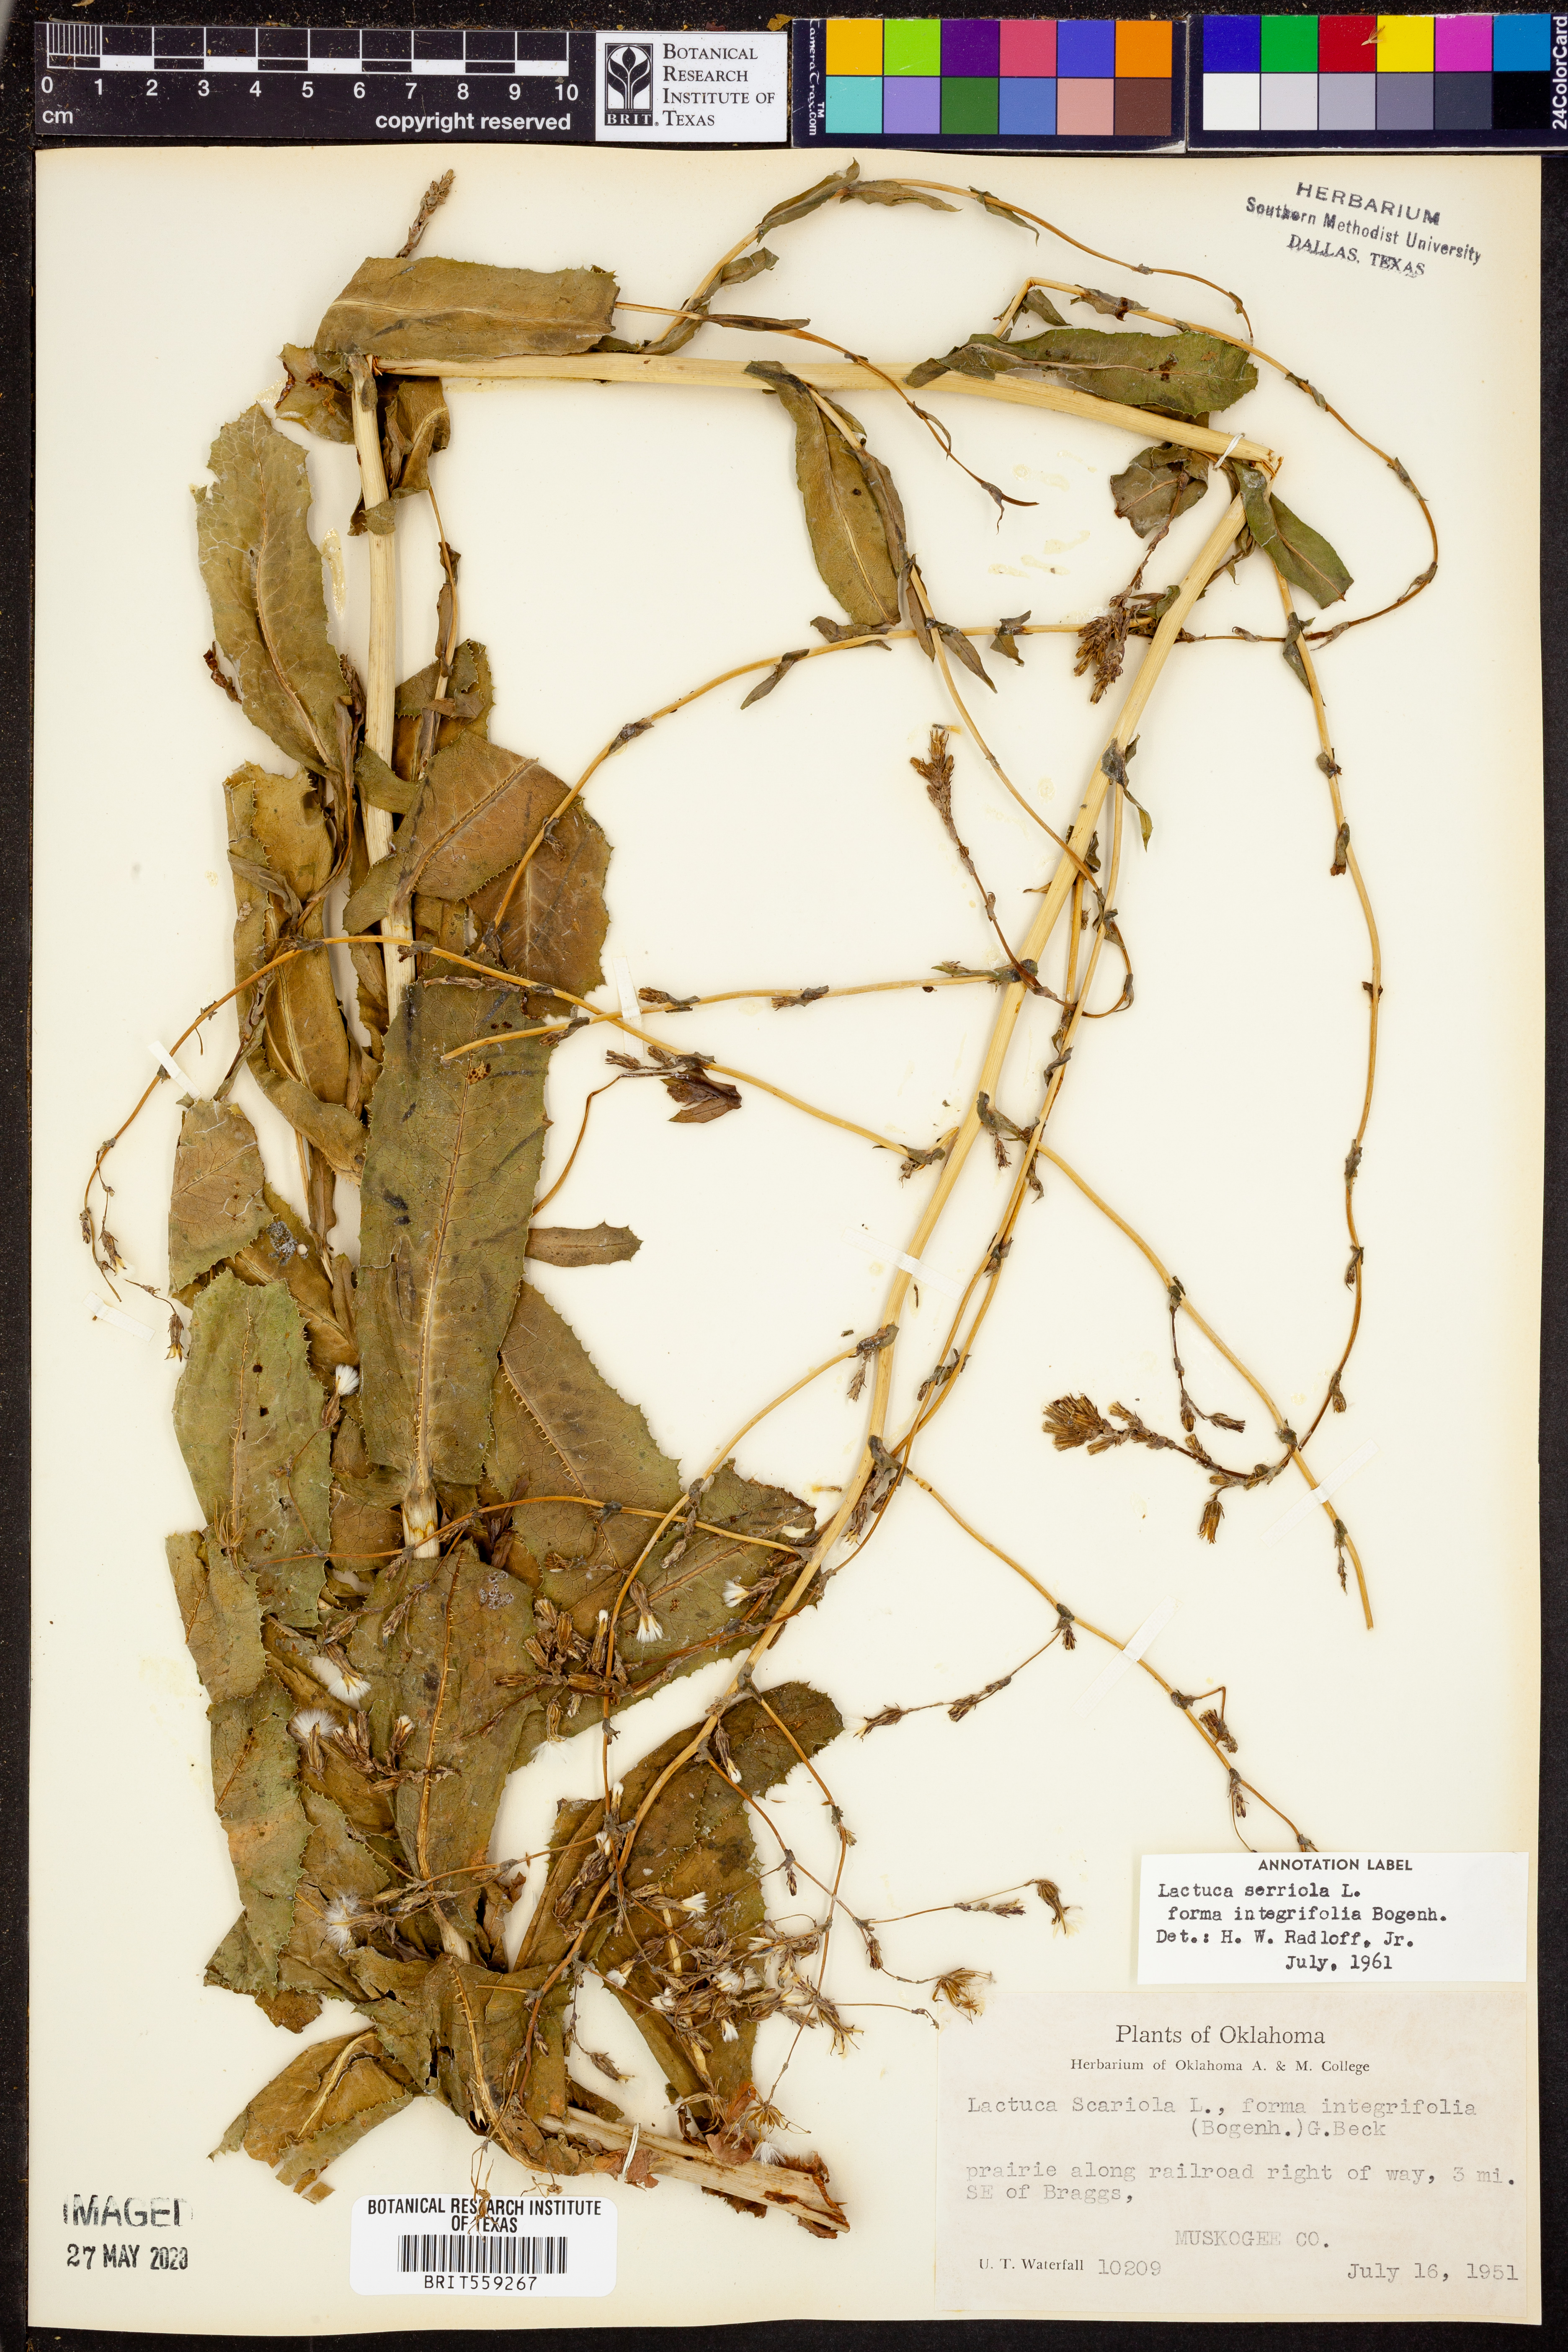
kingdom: Plantae
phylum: Tracheophyta
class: Magnoliopsida
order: Asterales
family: Asteraceae
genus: Lactuca
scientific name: Lactuca serriola
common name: Prickly lettuce
